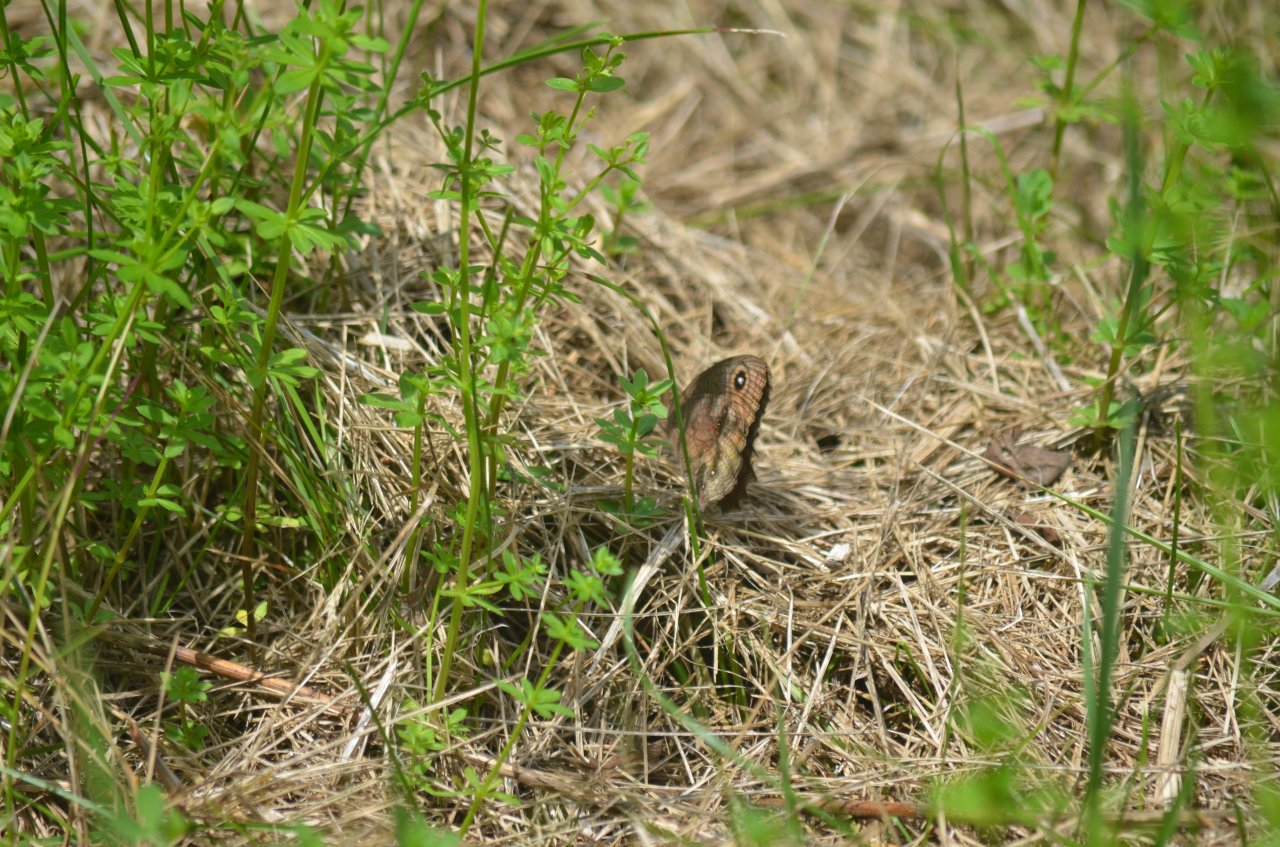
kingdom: Animalia
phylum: Arthropoda
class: Insecta
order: Lepidoptera
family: Nymphalidae
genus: Cercyonis
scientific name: Cercyonis pegala
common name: Common Wood-Nymph
